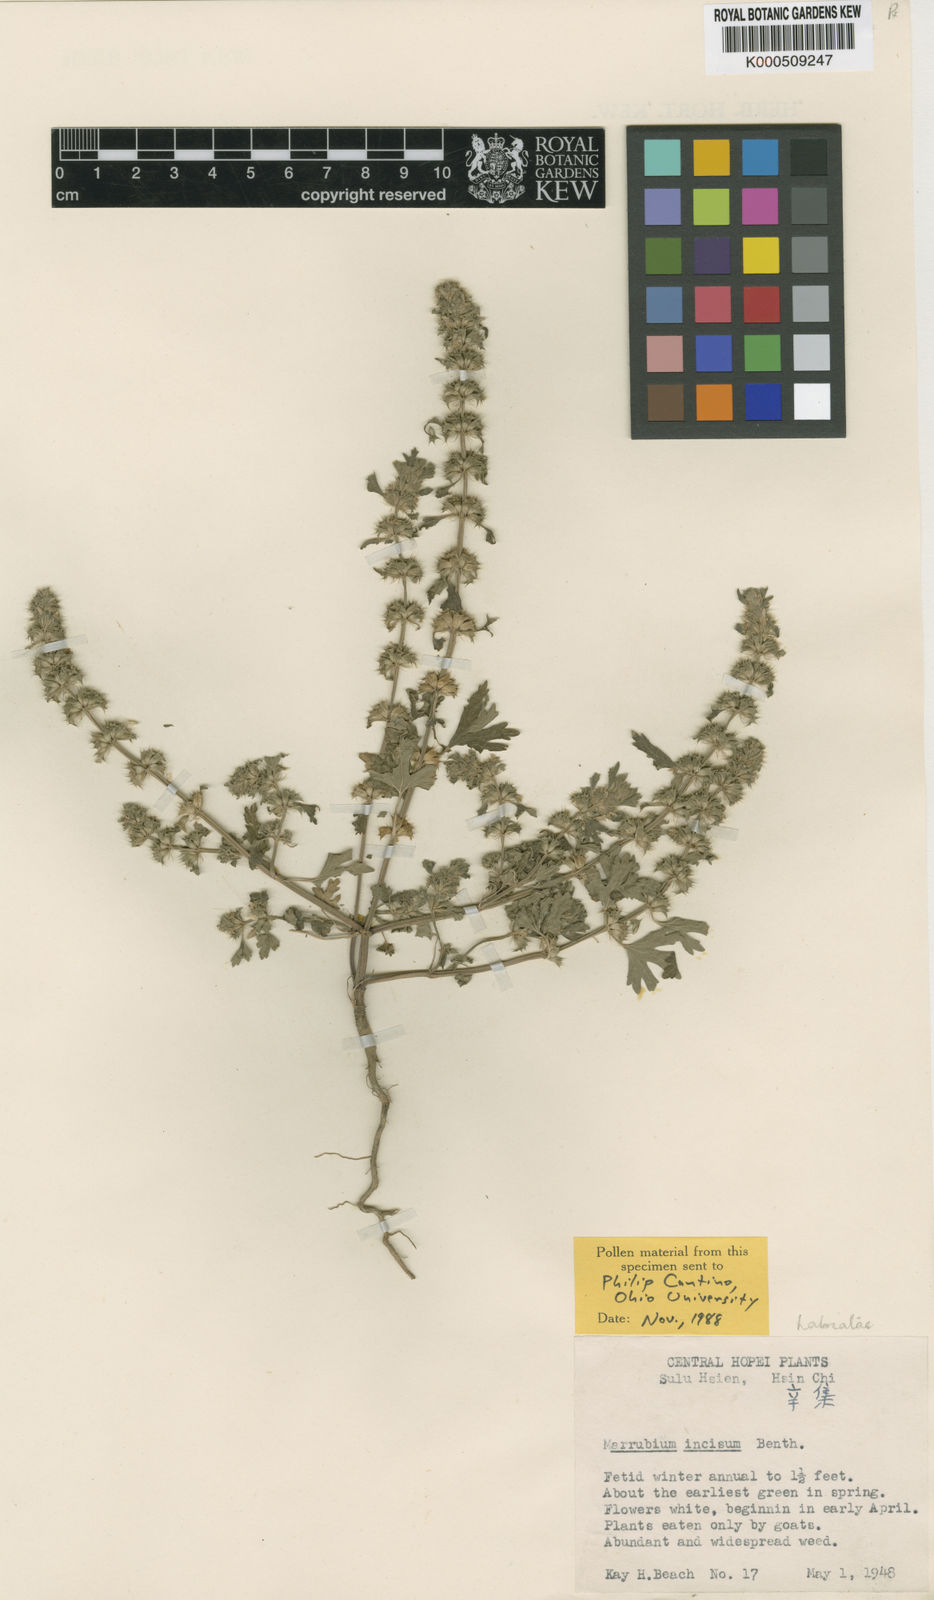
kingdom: Plantae
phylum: Tracheophyta
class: Magnoliopsida
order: Lamiales
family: Lamiaceae
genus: Lagopsis
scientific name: Lagopsis supina
